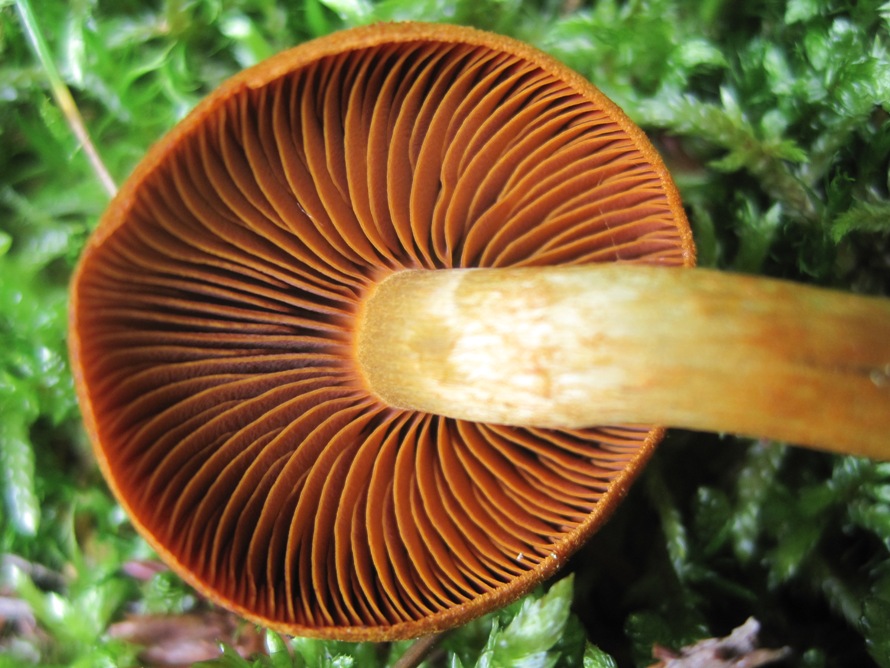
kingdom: Fungi
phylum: Basidiomycota
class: Agaricomycetes
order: Agaricales
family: Cortinariaceae
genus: Cortinarius
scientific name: Cortinarius malicorius
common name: grønkødet slørhat
